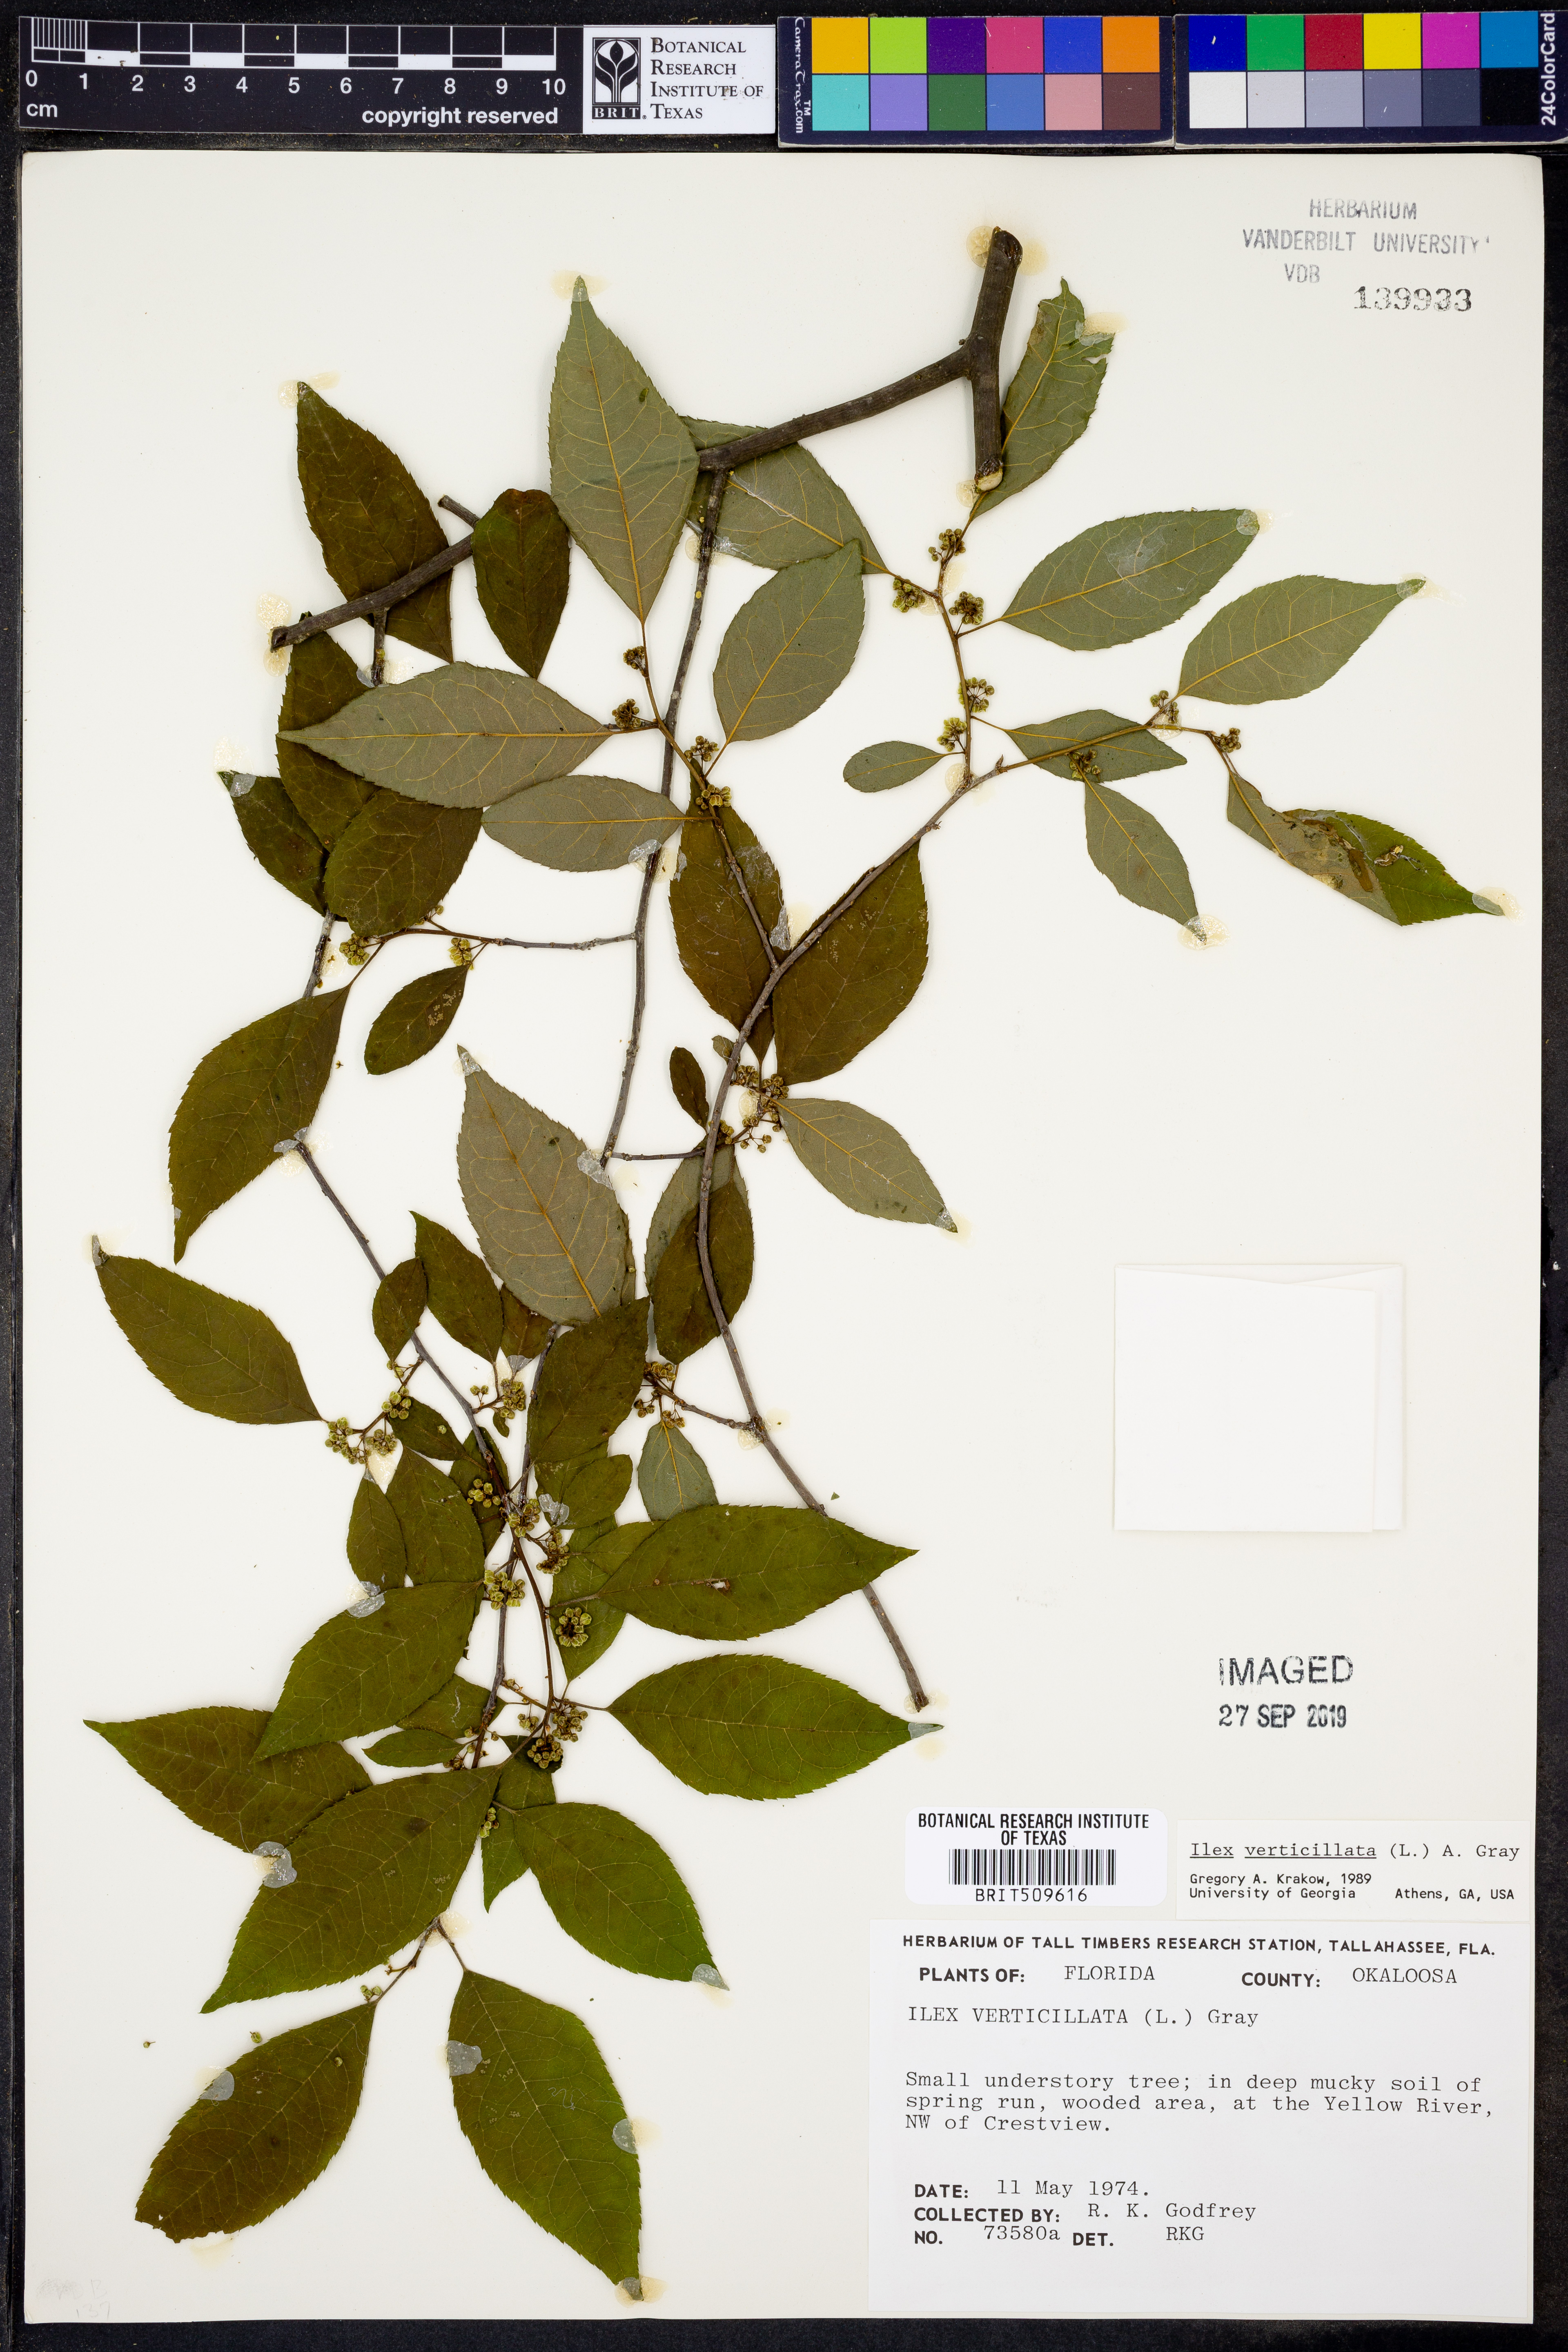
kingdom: Plantae
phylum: Tracheophyta
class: Magnoliopsida
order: Aquifoliales
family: Aquifoliaceae
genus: Ilex
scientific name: Ilex verticillata
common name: Virginia winterberry
